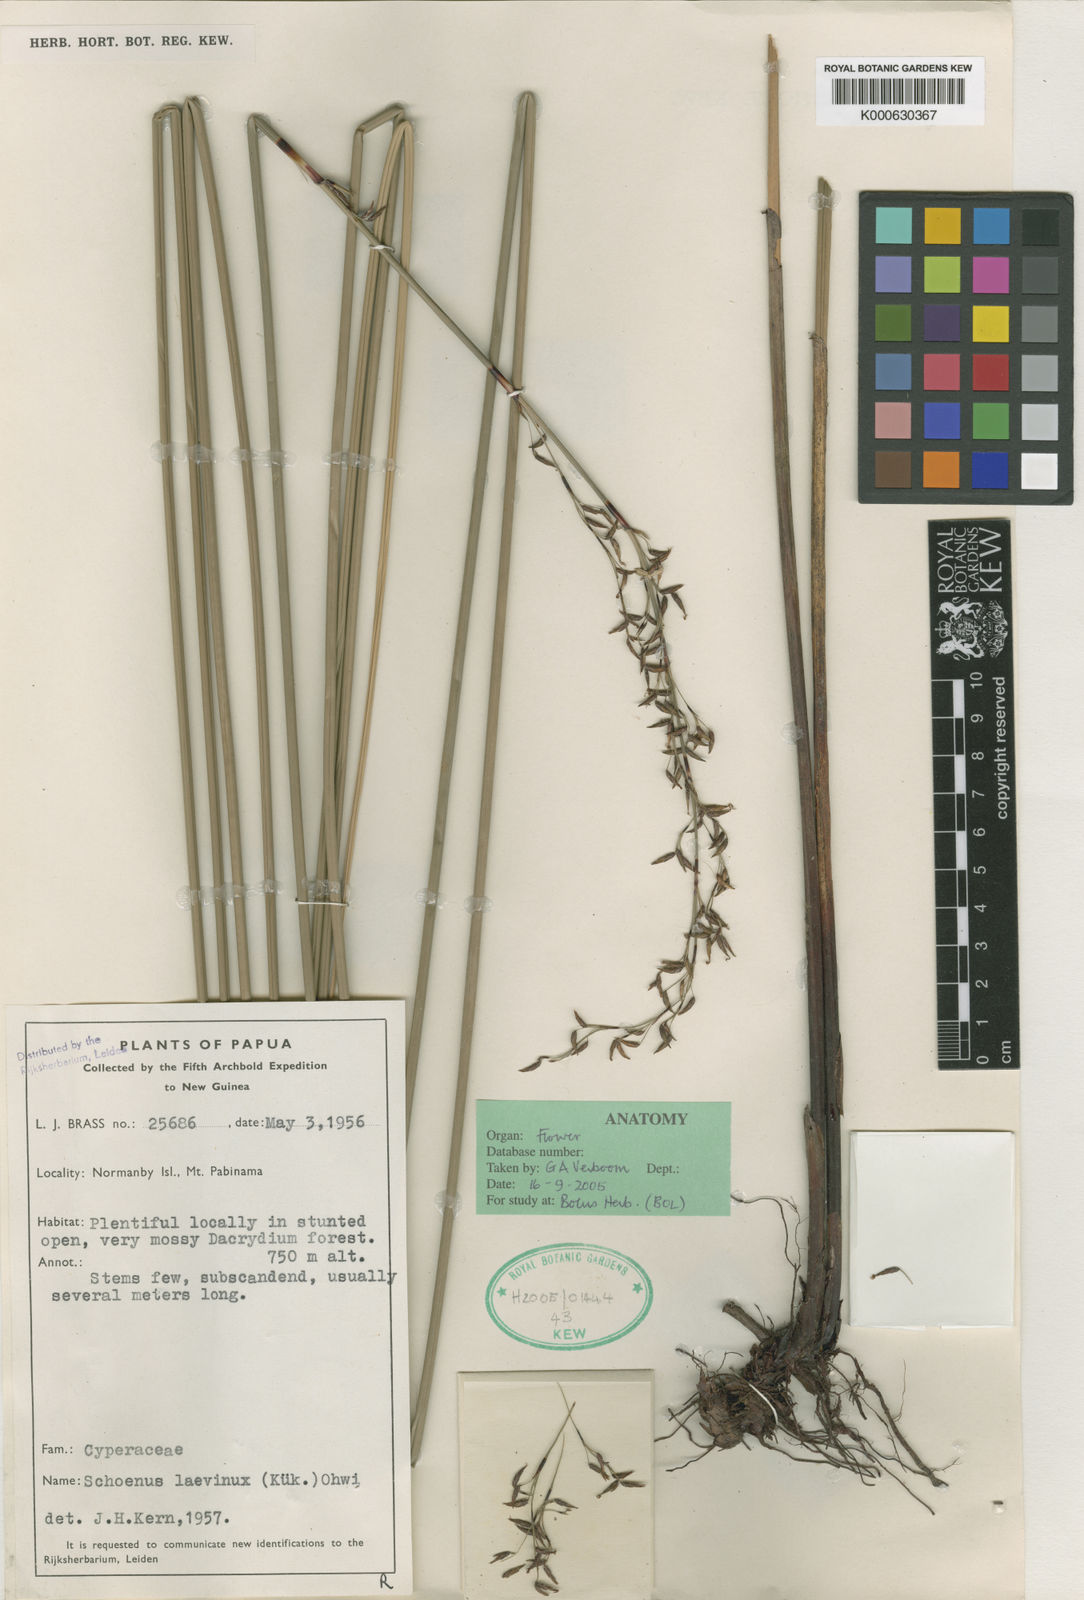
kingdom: Plantae
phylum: Tracheophyta
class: Liliopsida
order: Poales
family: Cyperaceae
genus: Schoenus
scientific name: Schoenus
